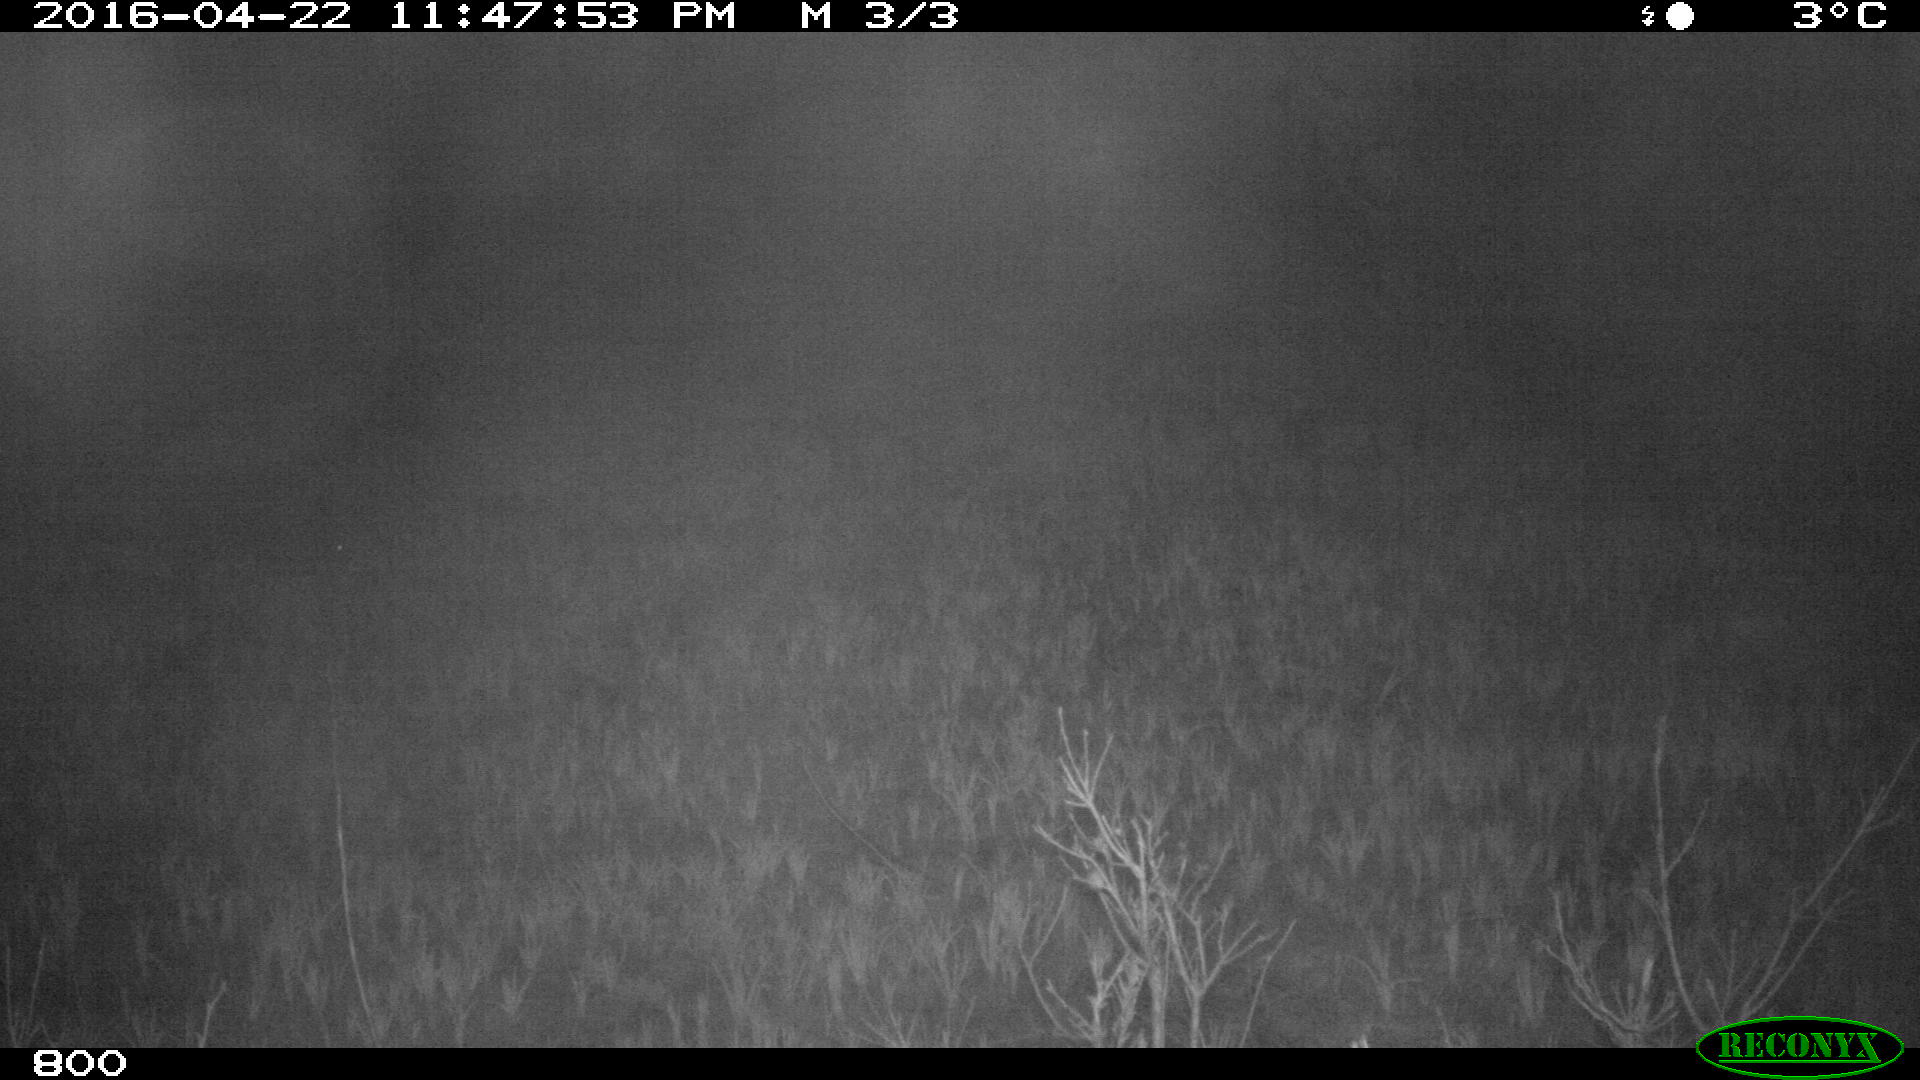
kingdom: Animalia
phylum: Chordata
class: Mammalia
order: Artiodactyla
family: Suidae
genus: Sus
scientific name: Sus scrofa
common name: Wild boar
